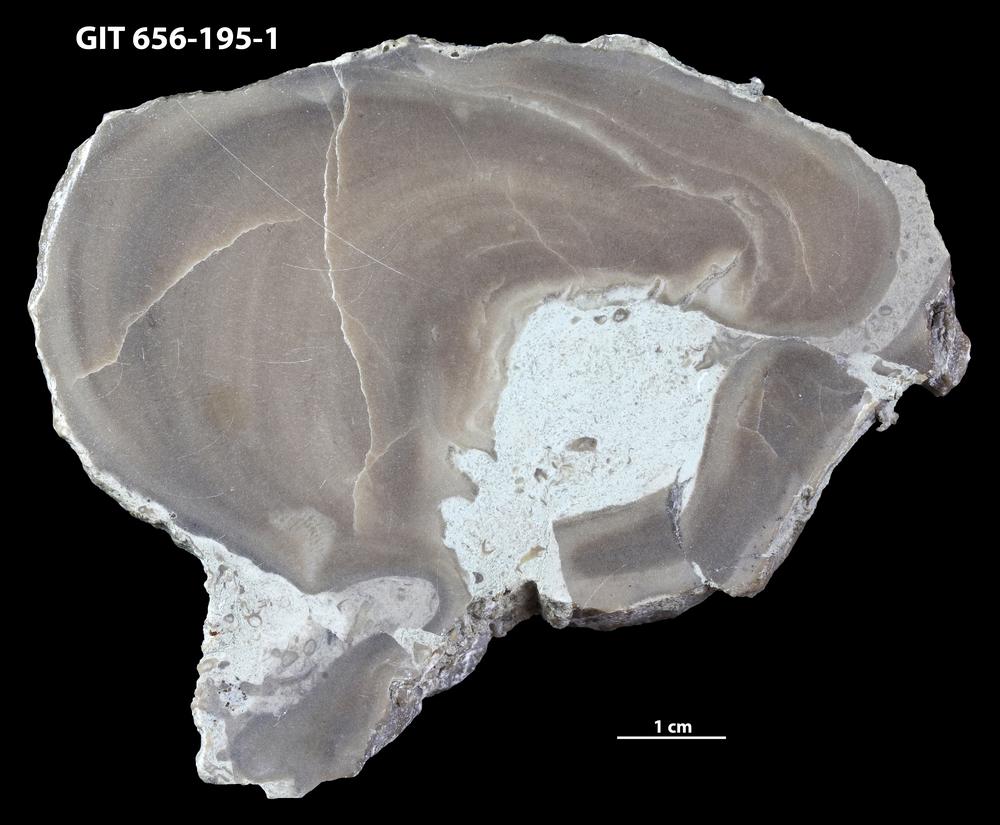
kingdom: Animalia
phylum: Porifera
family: Actinostromatidae
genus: Plectostroma
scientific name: Plectostroma
